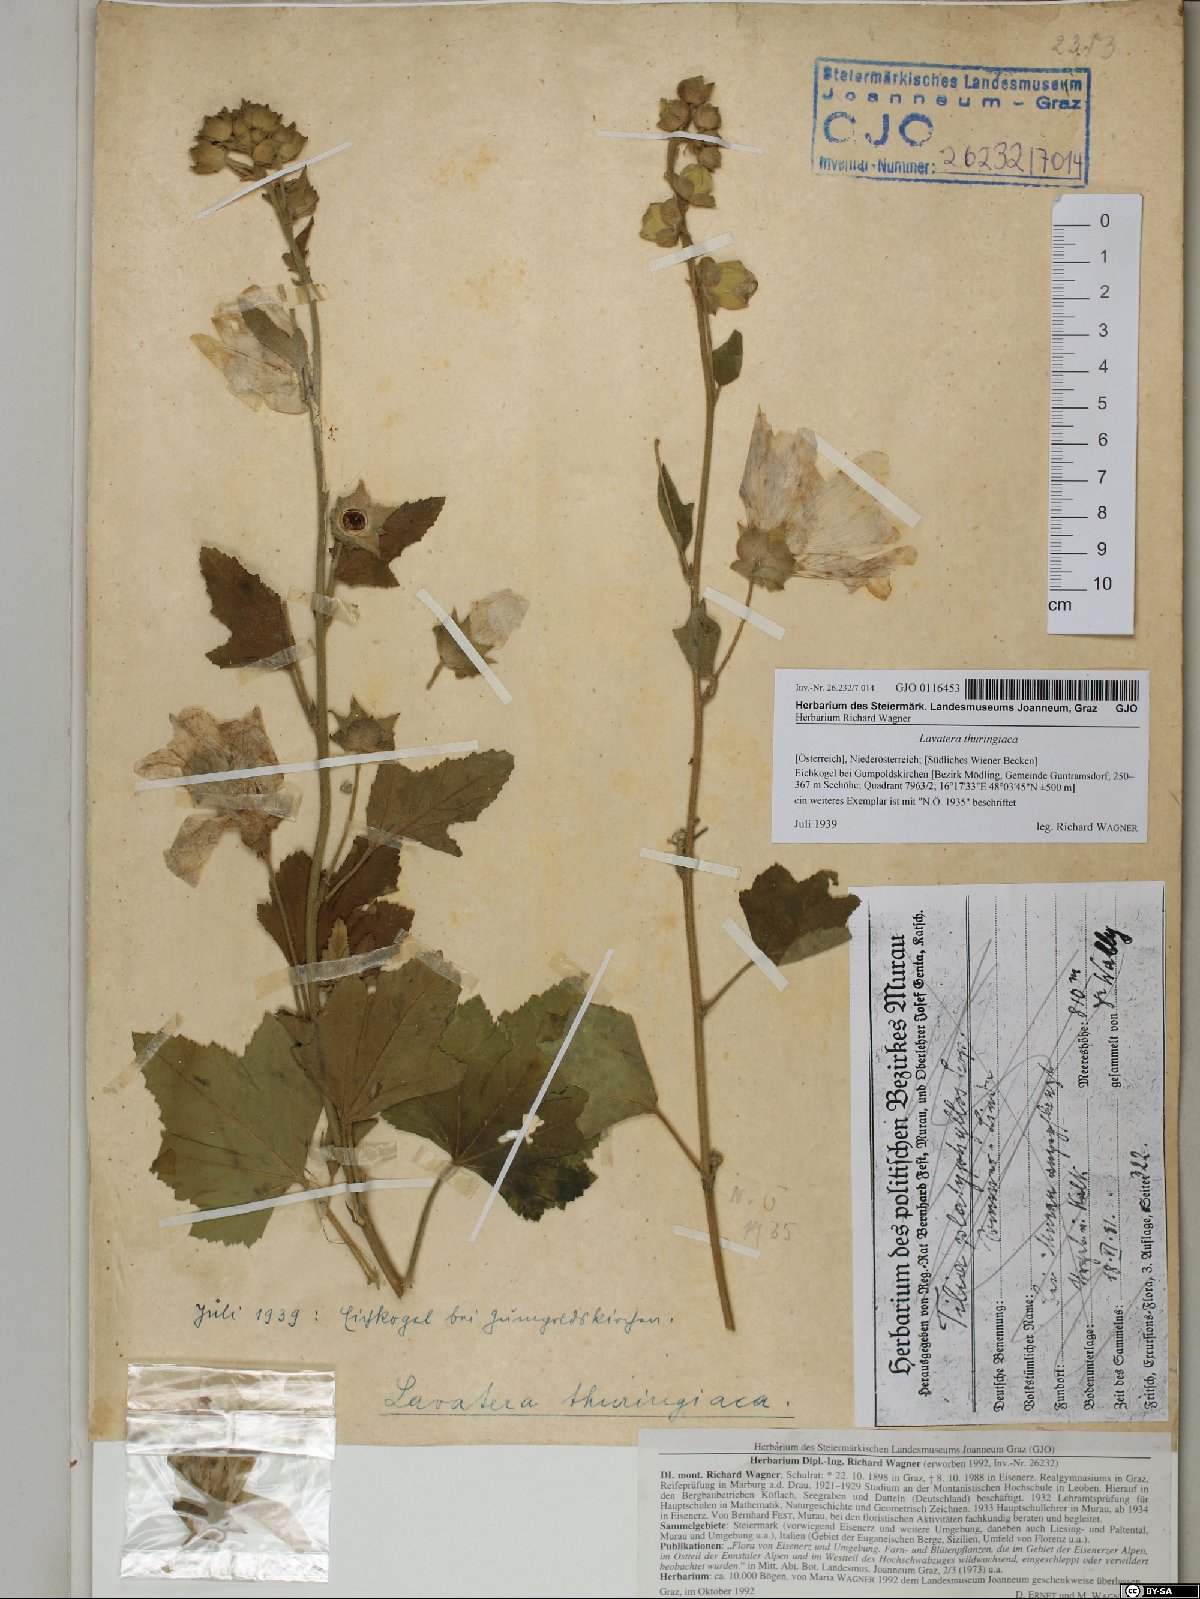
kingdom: Plantae
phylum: Tracheophyta
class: Magnoliopsida
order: Malvales
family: Malvaceae
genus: Malva
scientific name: Malva thuringiaca
